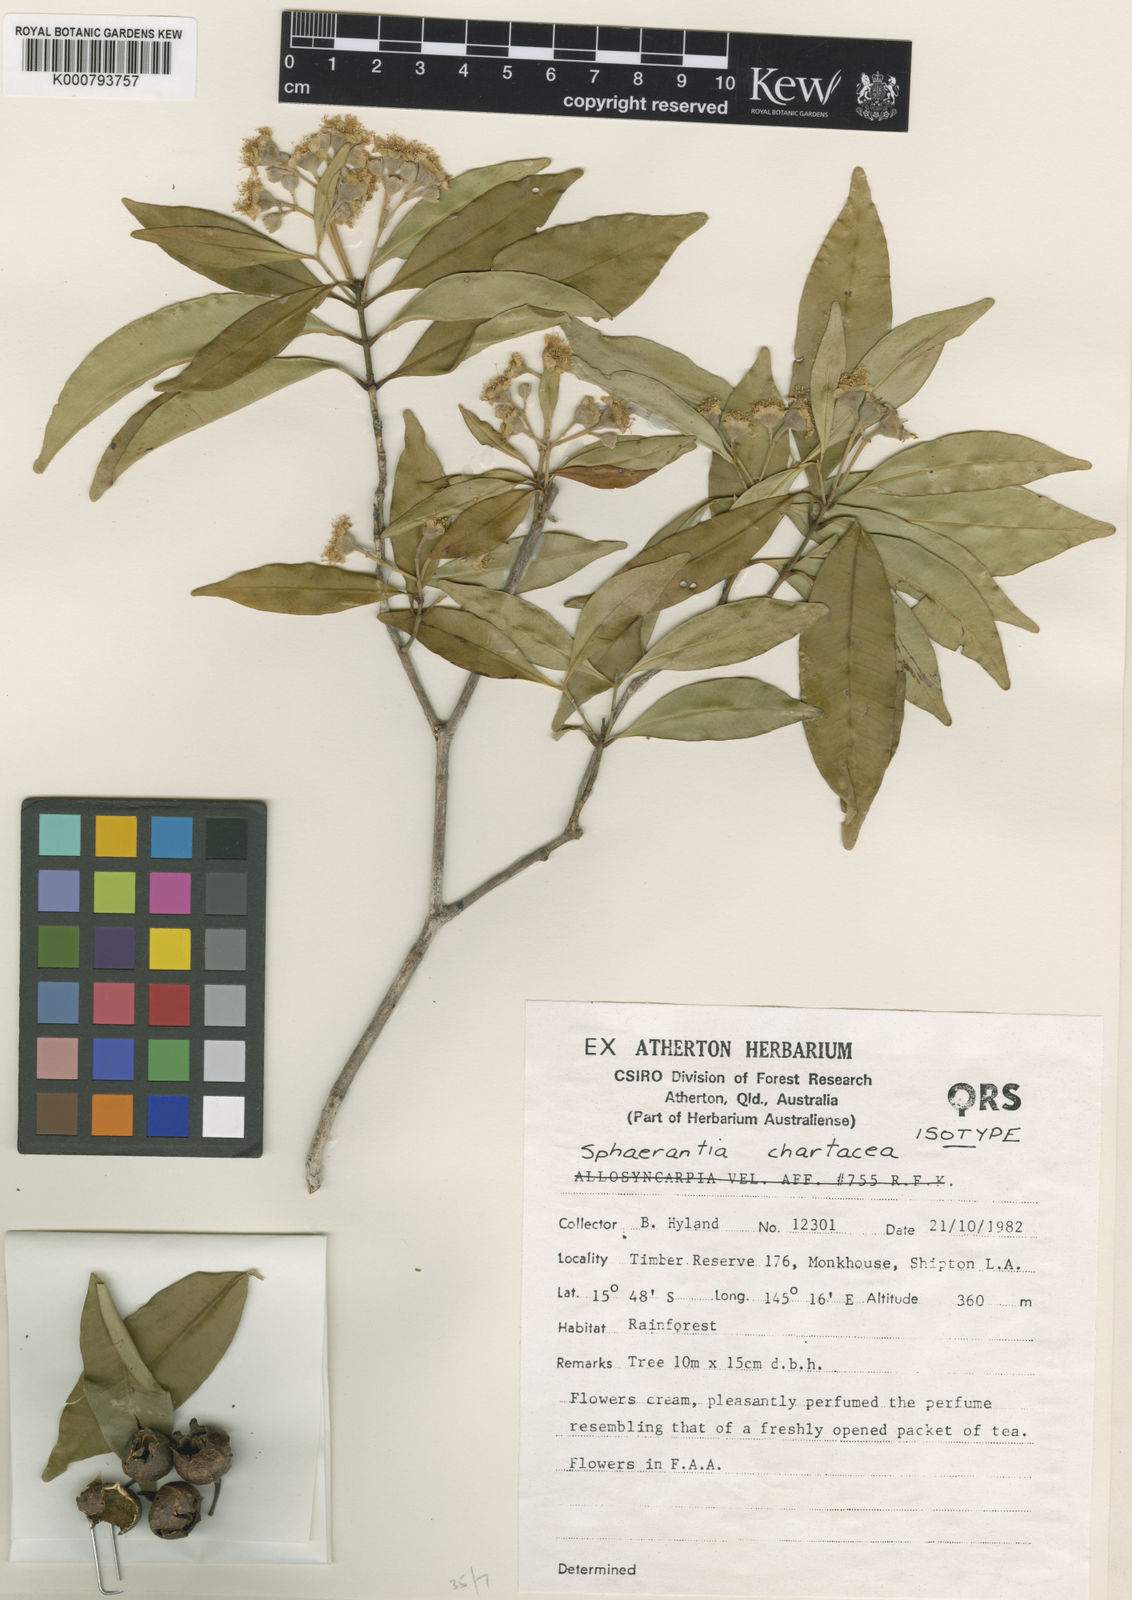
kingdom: Plantae
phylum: Tracheophyta
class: Magnoliopsida
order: Myrtales
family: Myrtaceae
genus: Sphaerantia
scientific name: Sphaerantia chartacea
